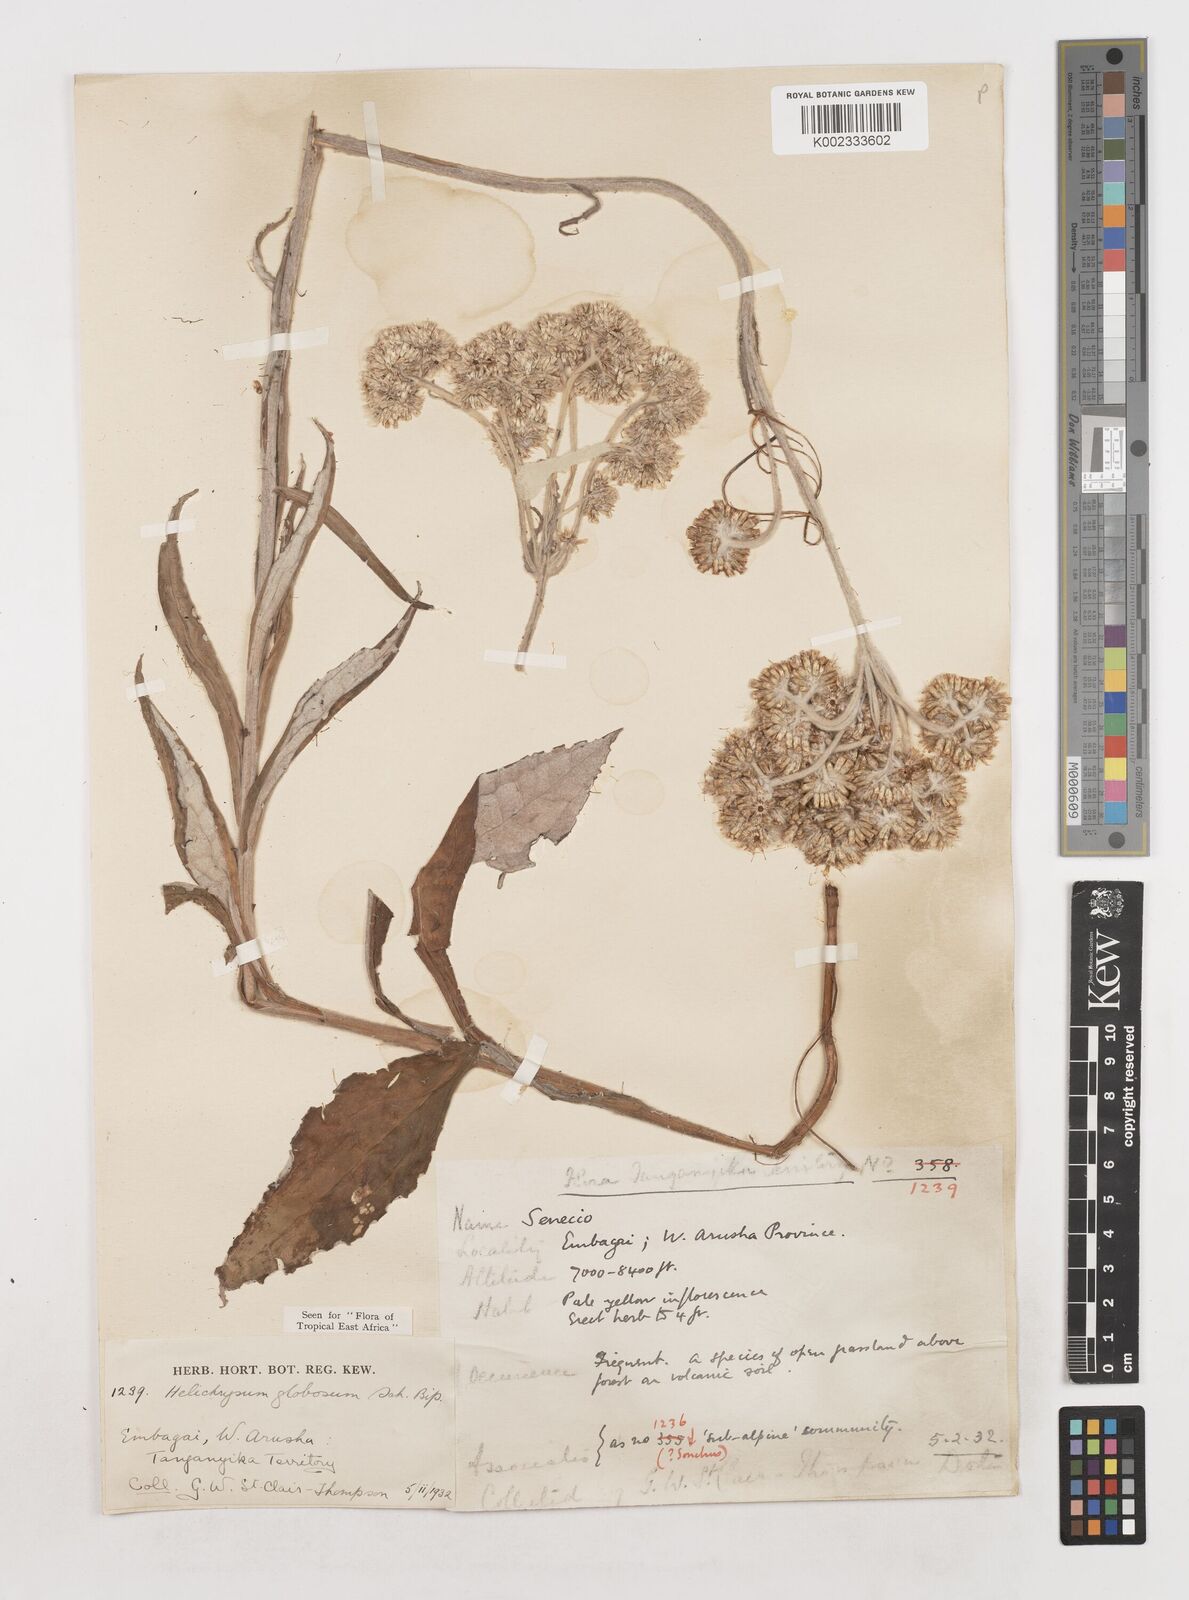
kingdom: Plantae
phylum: Tracheophyta
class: Magnoliopsida
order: Asterales
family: Asteraceae
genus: Helichrysum
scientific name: Helichrysum globosum
